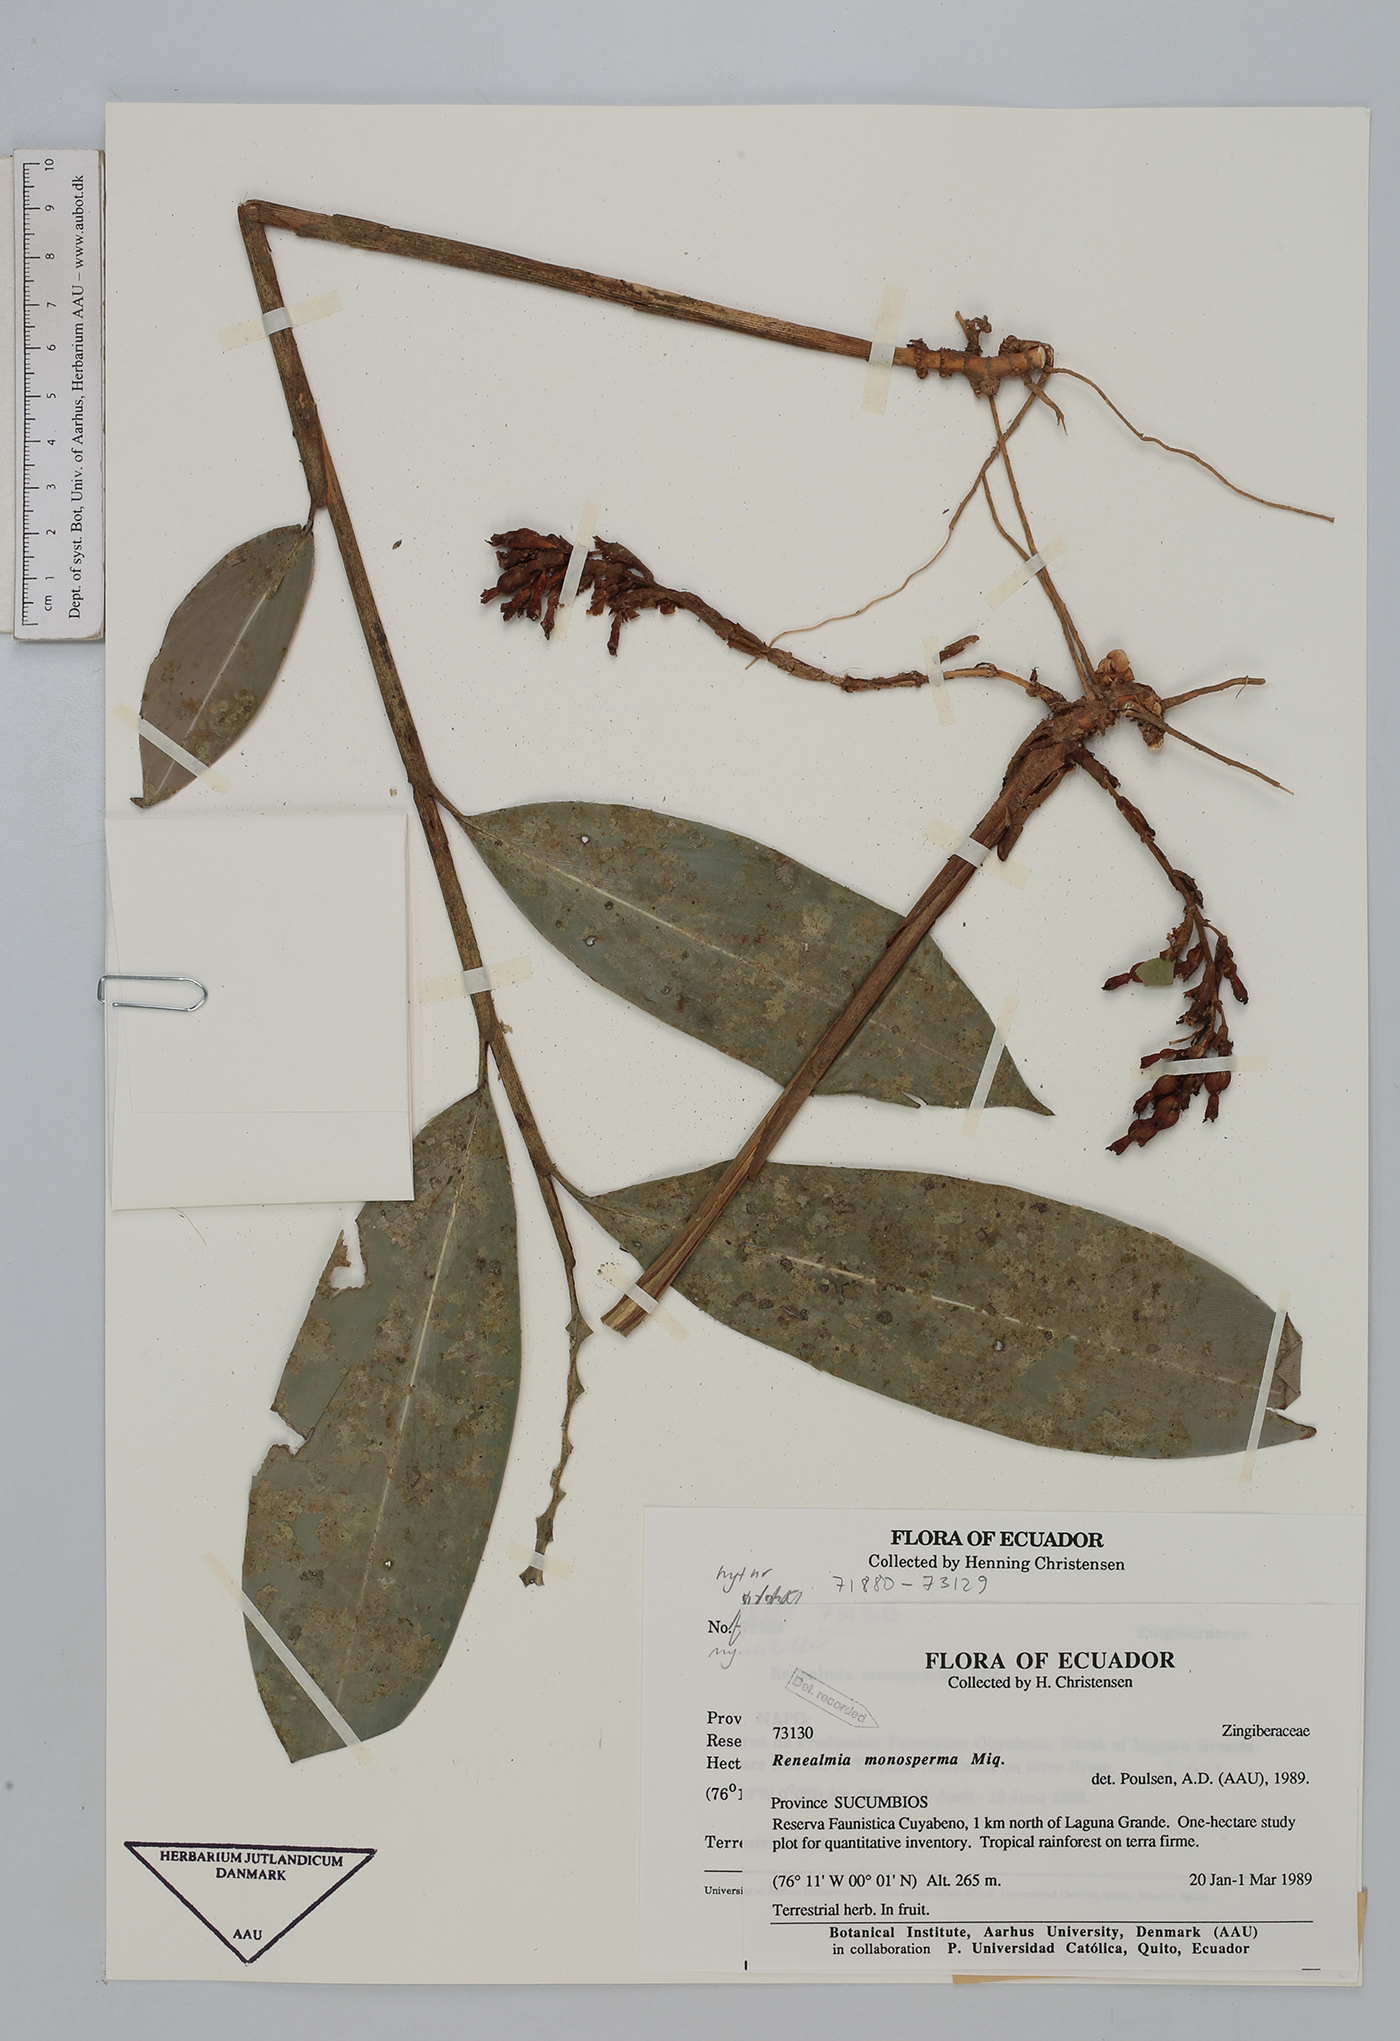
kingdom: Plantae
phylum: Tracheophyta
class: Liliopsida
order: Zingiberales
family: Zingiberaceae
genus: Renealmia
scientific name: Renealmia monosperma
